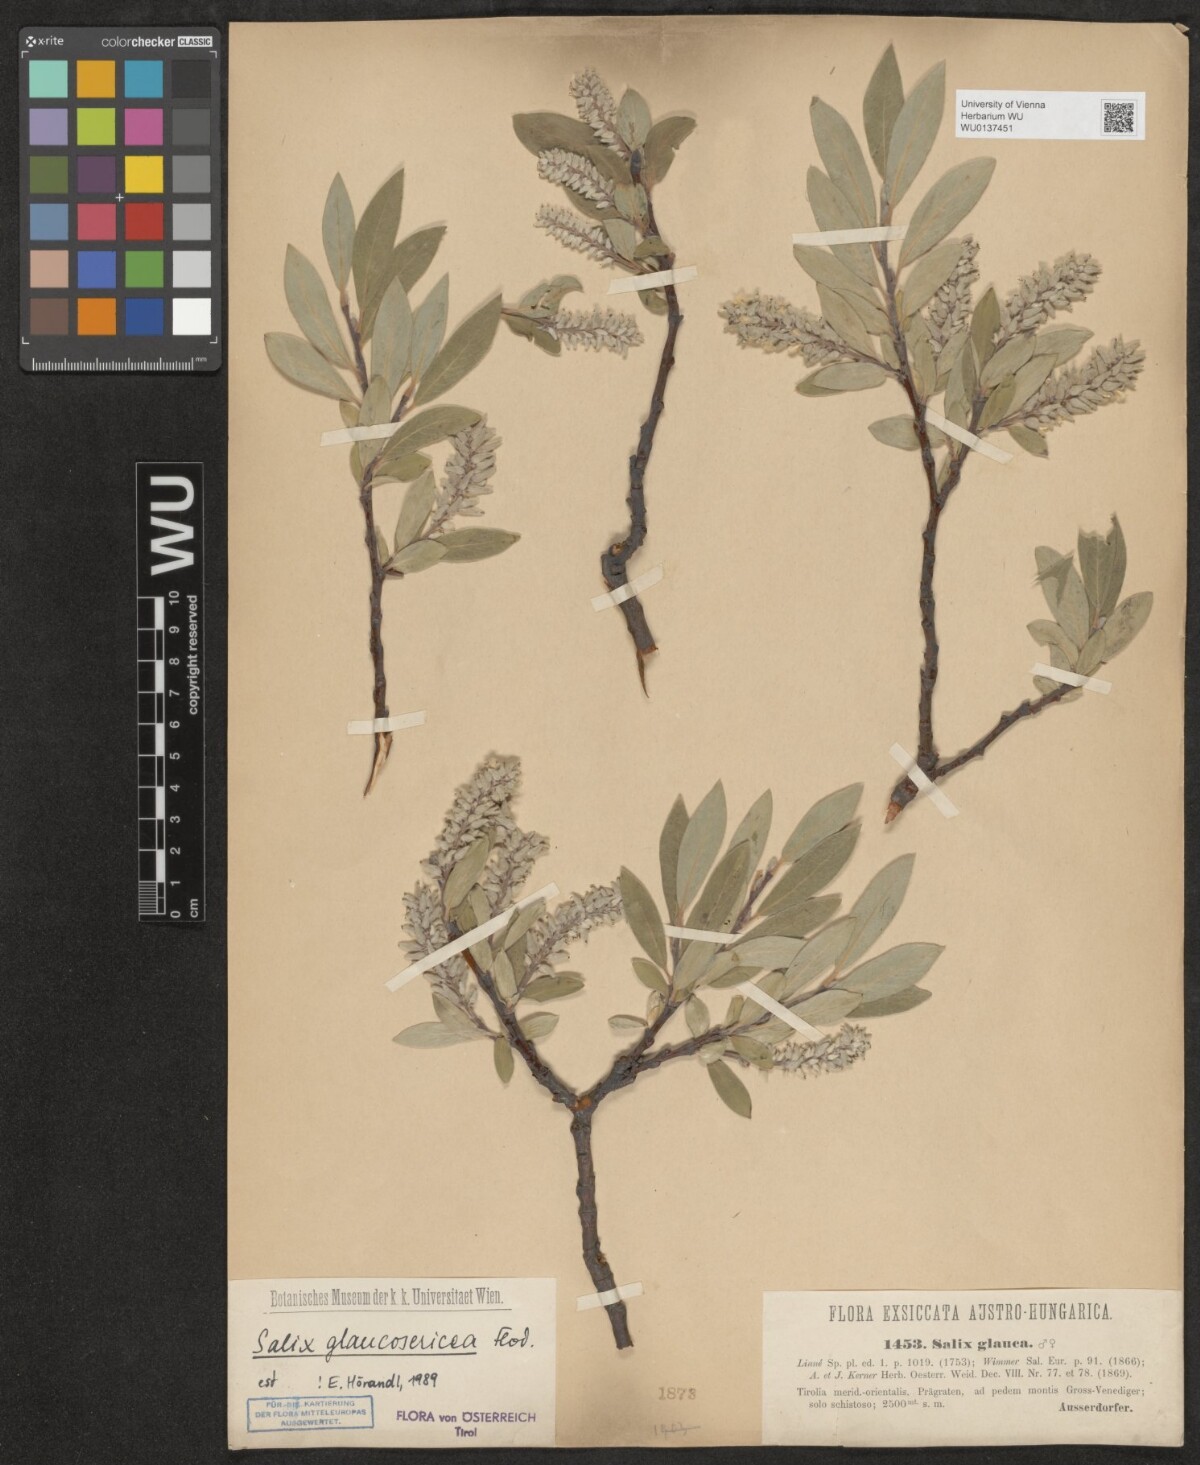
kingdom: Plantae
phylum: Tracheophyta
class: Magnoliopsida
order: Malpighiales
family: Salicaceae
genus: Salix
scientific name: Salix glaucosericea
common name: Alpine gray willow
